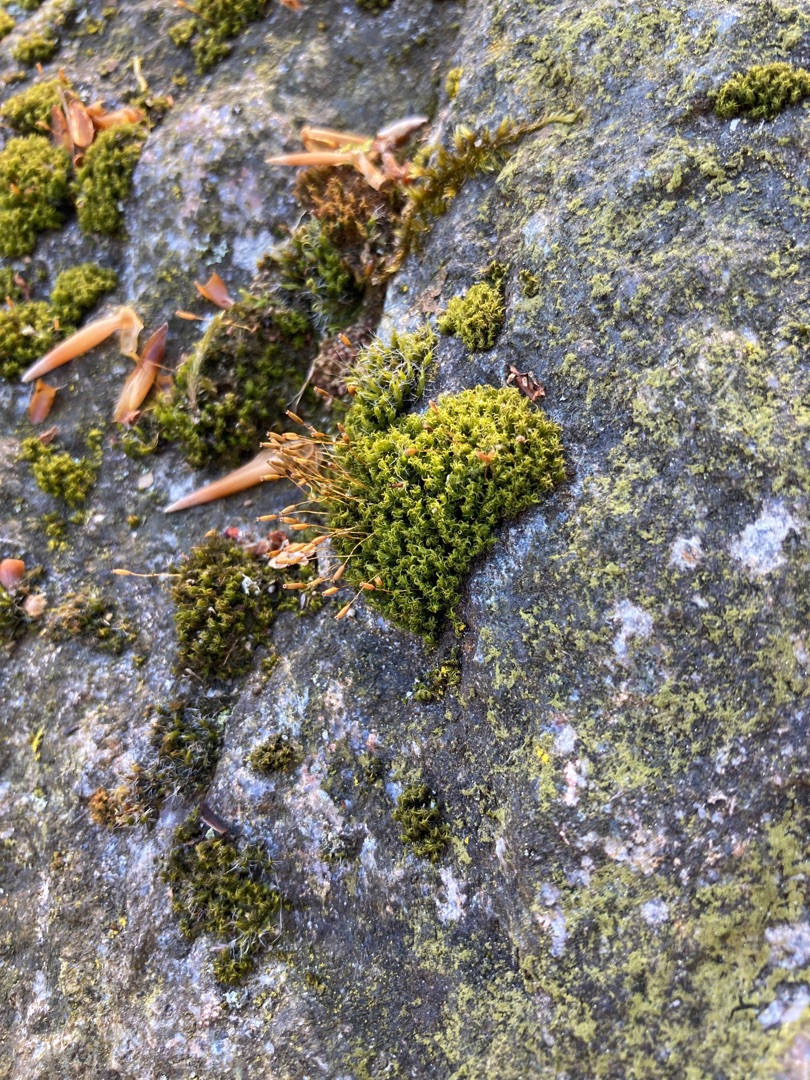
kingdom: Plantae
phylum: Bryophyta
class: Bryopsida
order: Dicranales
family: Rhabdoweisiaceae
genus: Dicranoweisia
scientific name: Dicranoweisia cirrata
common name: Almindelig krøltuemos
